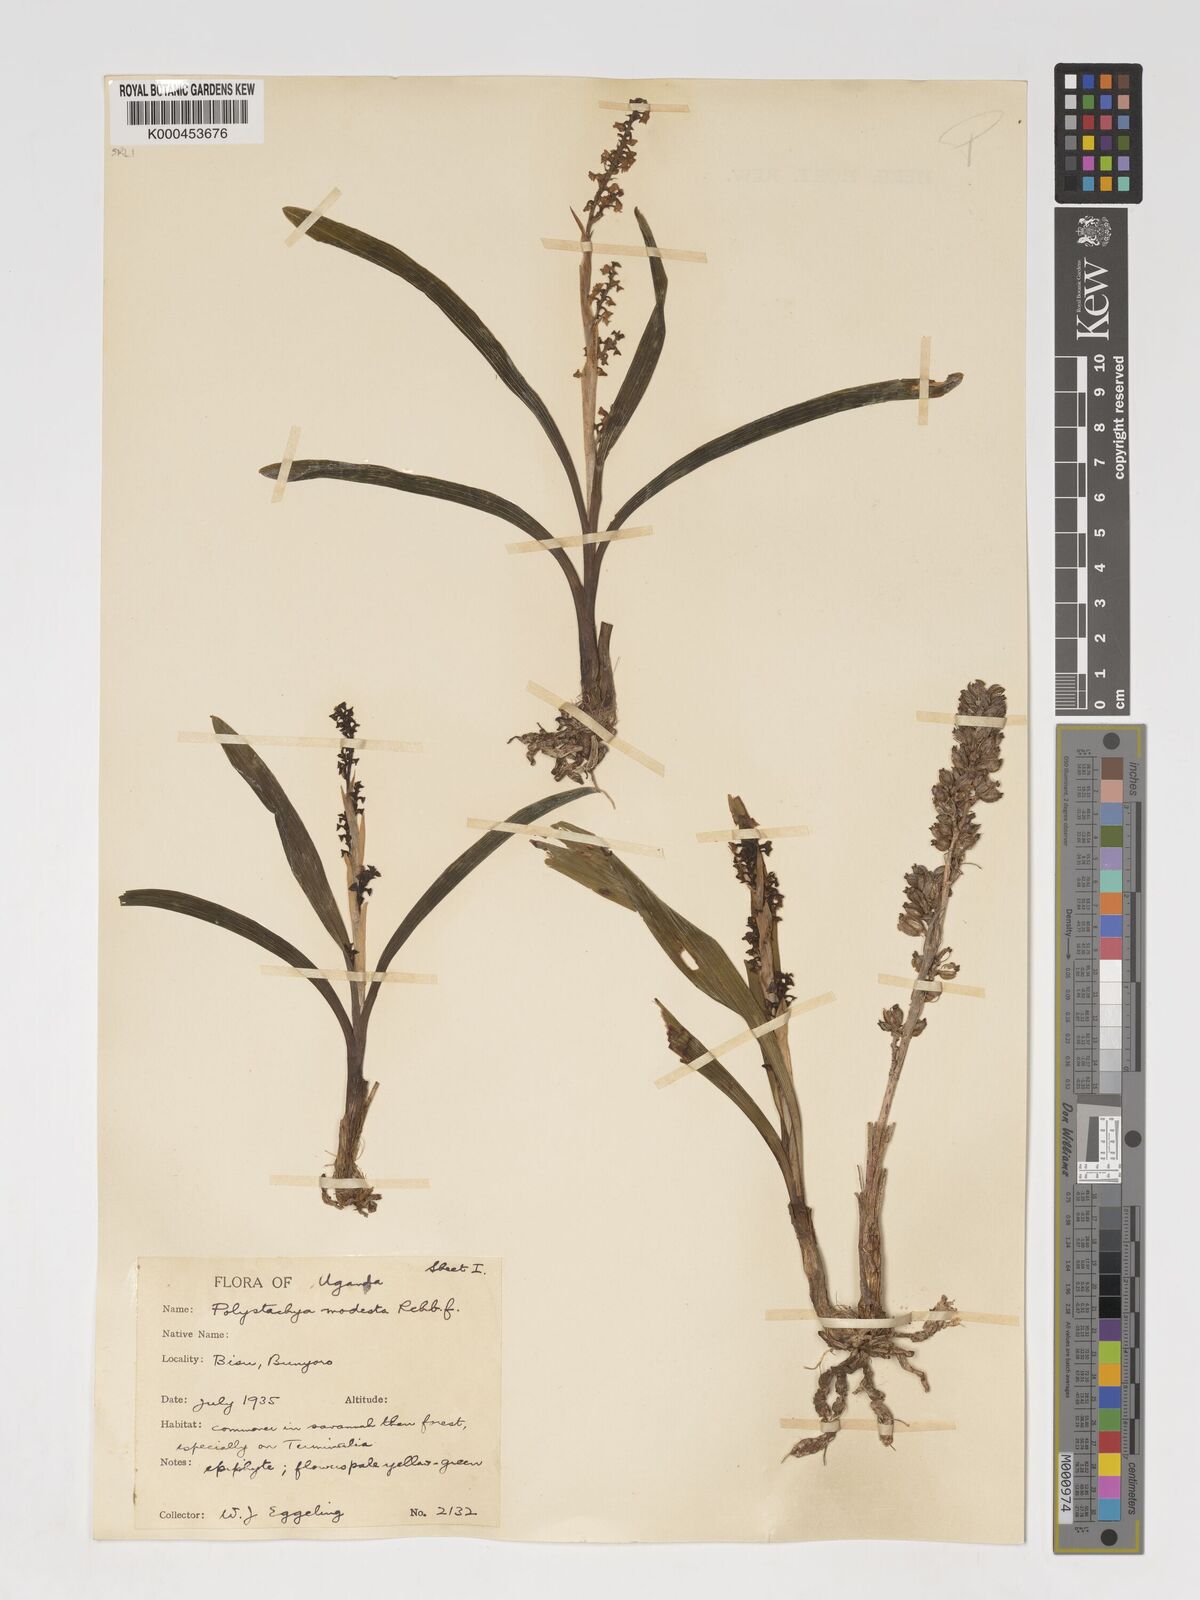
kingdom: Plantae
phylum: Tracheophyta
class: Liliopsida
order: Asparagales
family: Orchidaceae
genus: Polystachya
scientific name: Polystachya modesta
